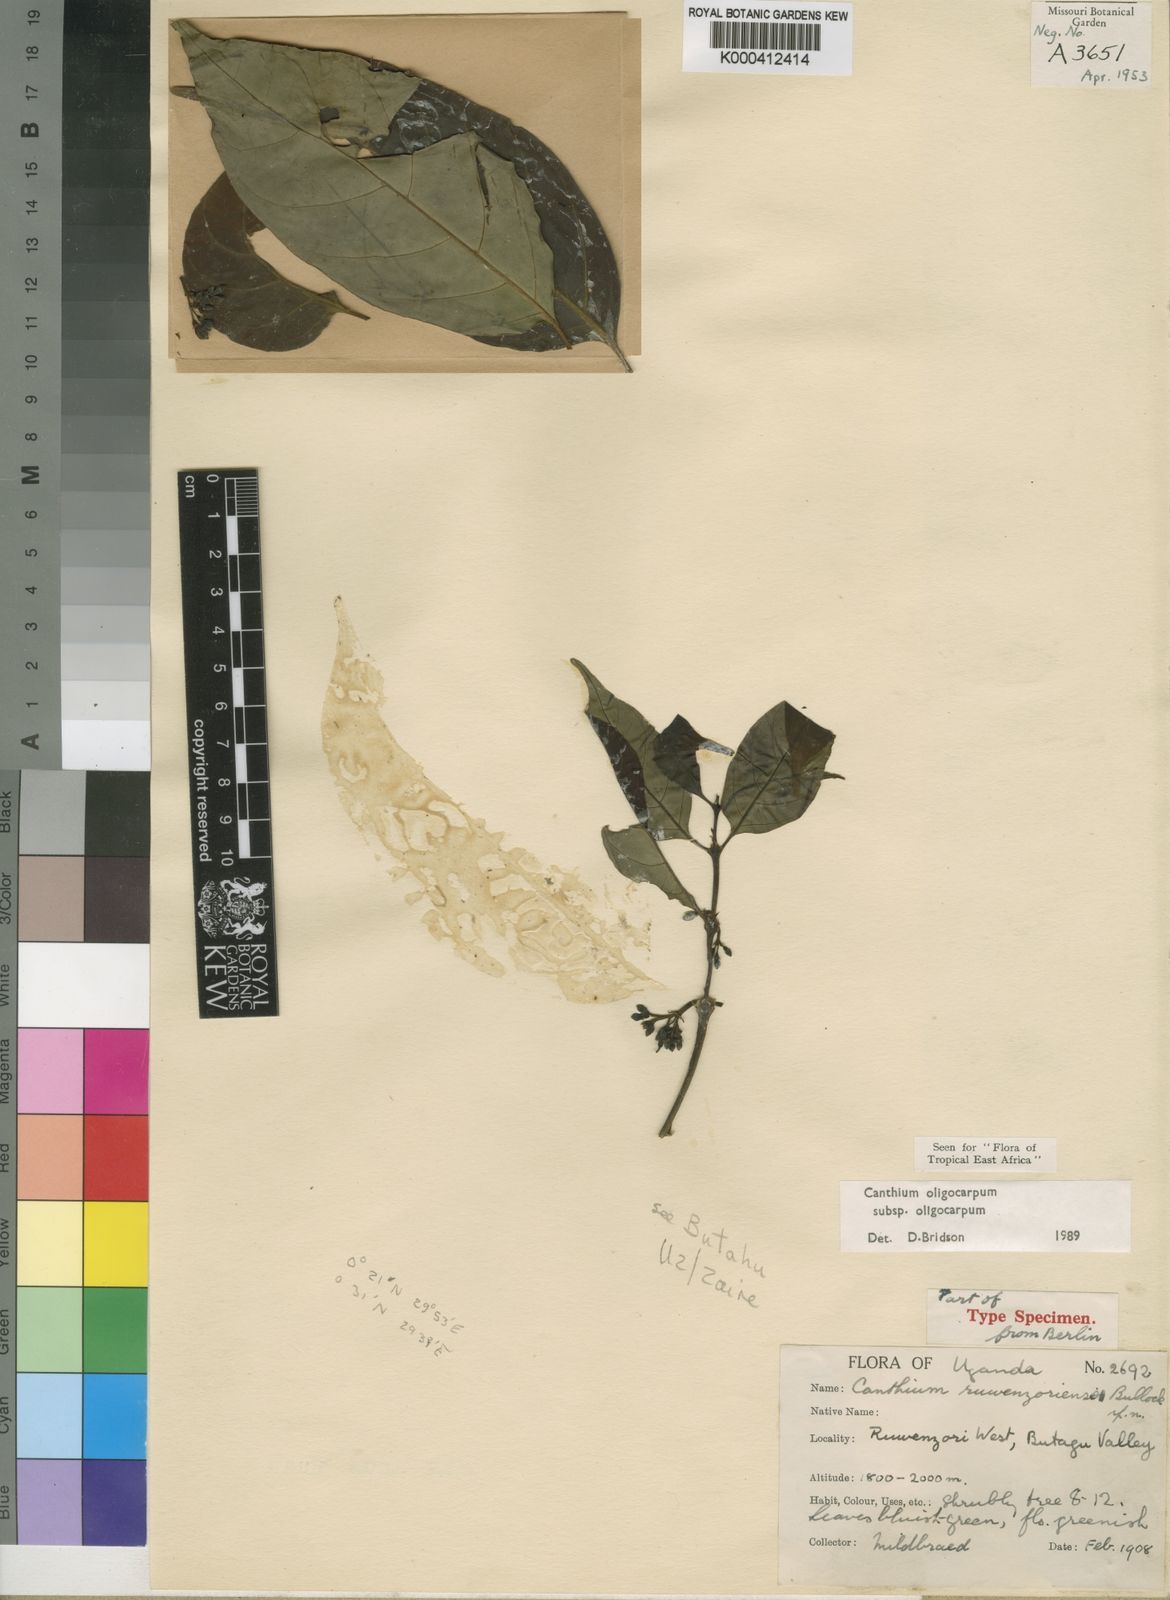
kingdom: Plantae
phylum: Tracheophyta
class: Magnoliopsida
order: Gentianales
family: Rubiaceae
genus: Canthium
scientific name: Canthium oligocarpum
